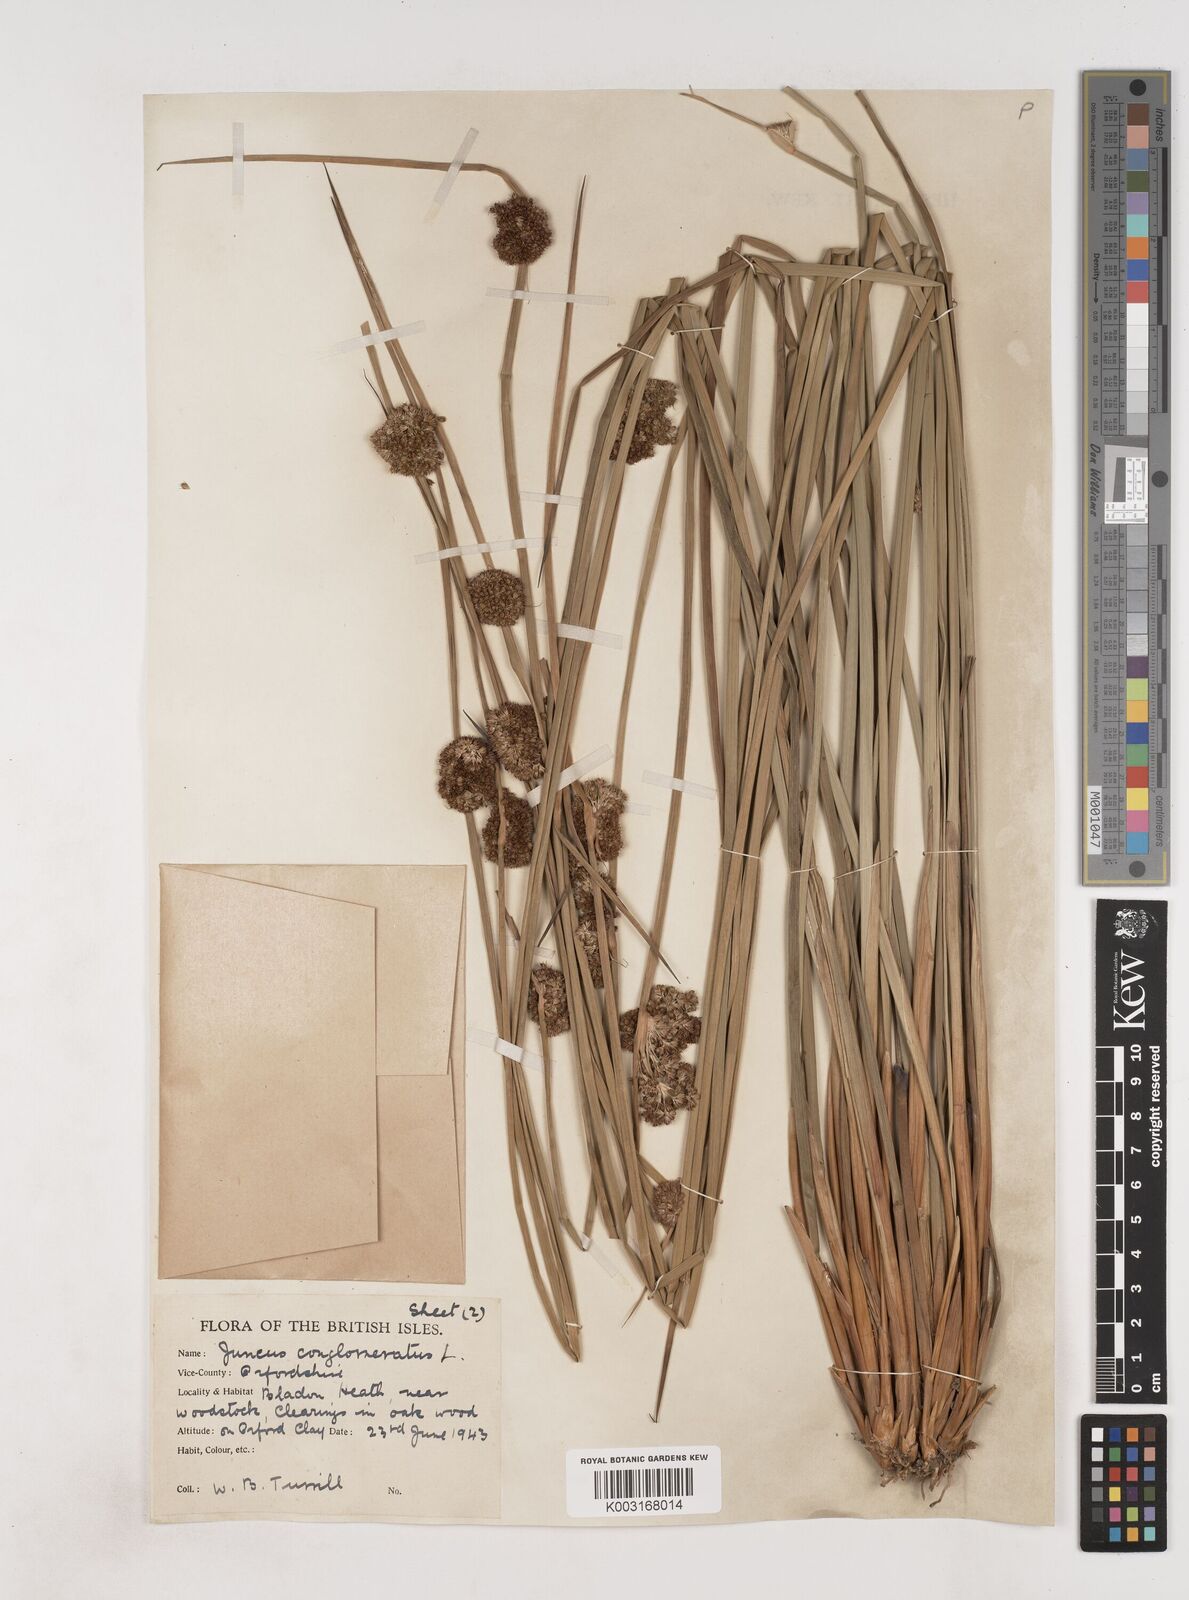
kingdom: Plantae
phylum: Tracheophyta
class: Liliopsida
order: Poales
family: Juncaceae
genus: Juncus
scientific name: Juncus conglomeratus
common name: Compact rush
